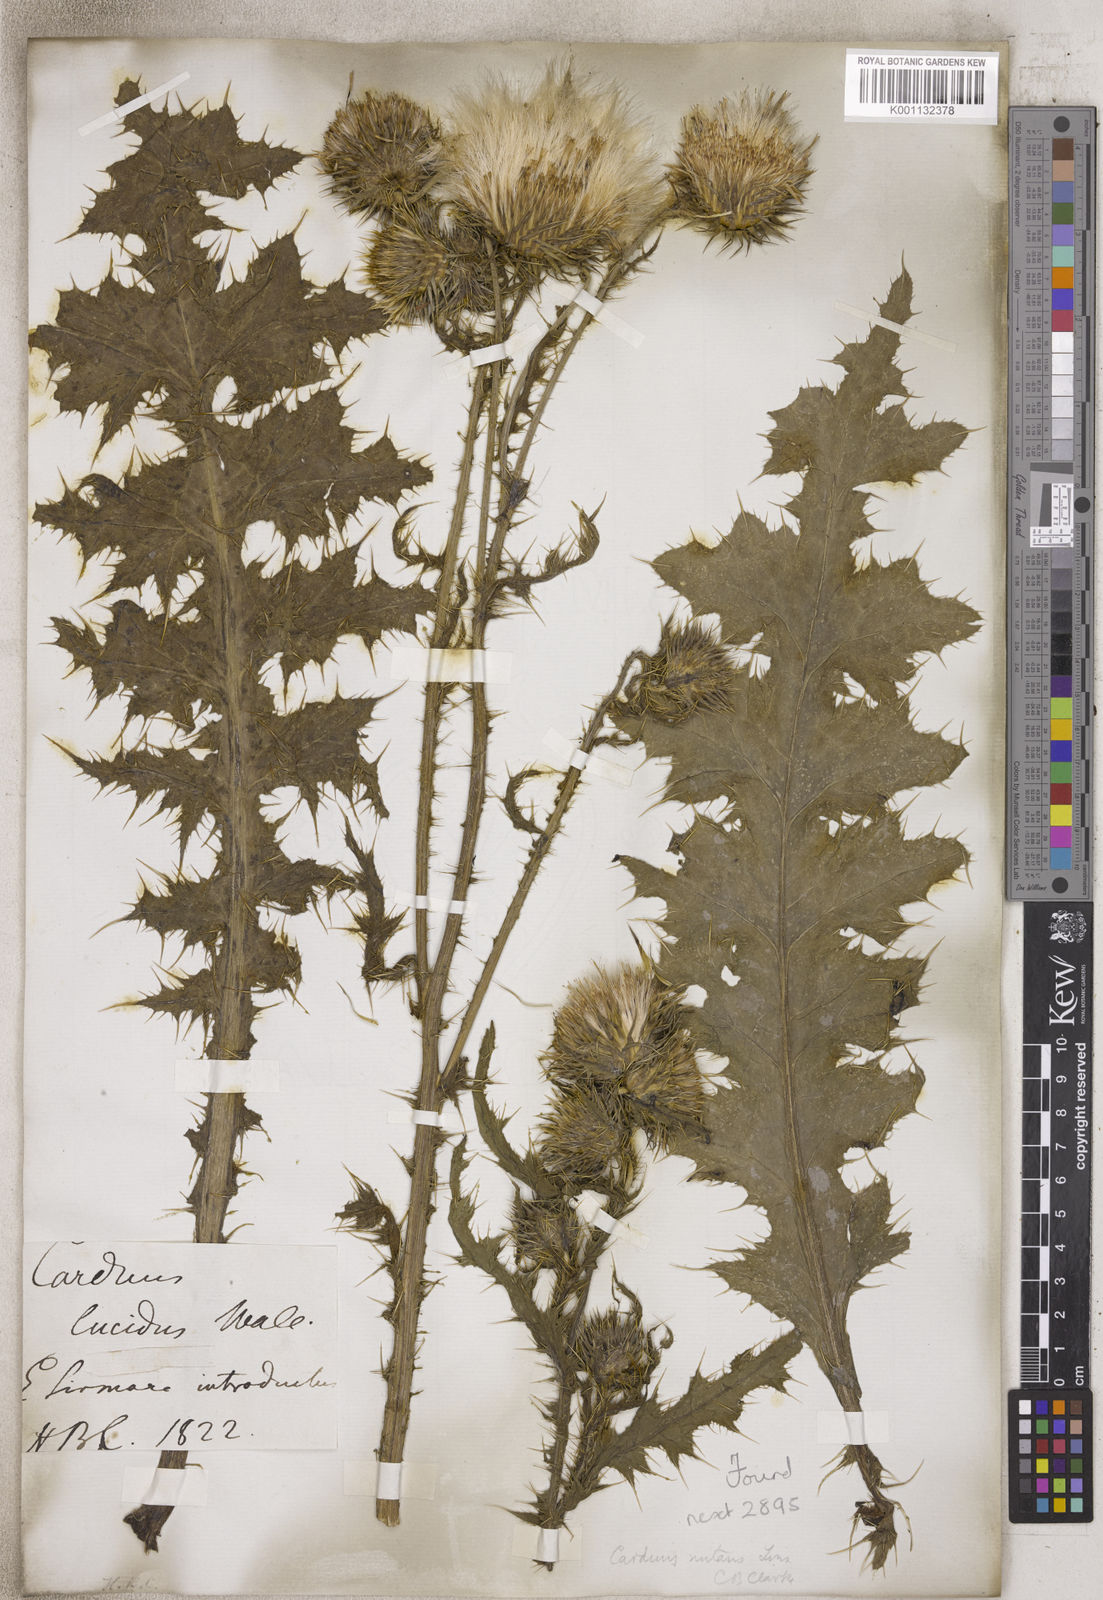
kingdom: Plantae
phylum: Tracheophyta
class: Magnoliopsida
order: Asterales
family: Asteraceae
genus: Carduus
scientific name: Carduus
